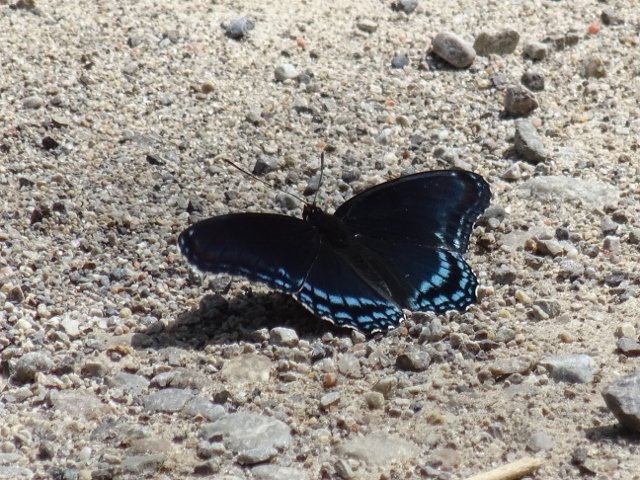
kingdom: Animalia
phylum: Arthropoda
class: Insecta
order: Lepidoptera
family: Nymphalidae
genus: Limenitis
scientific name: Limenitis astyanax
